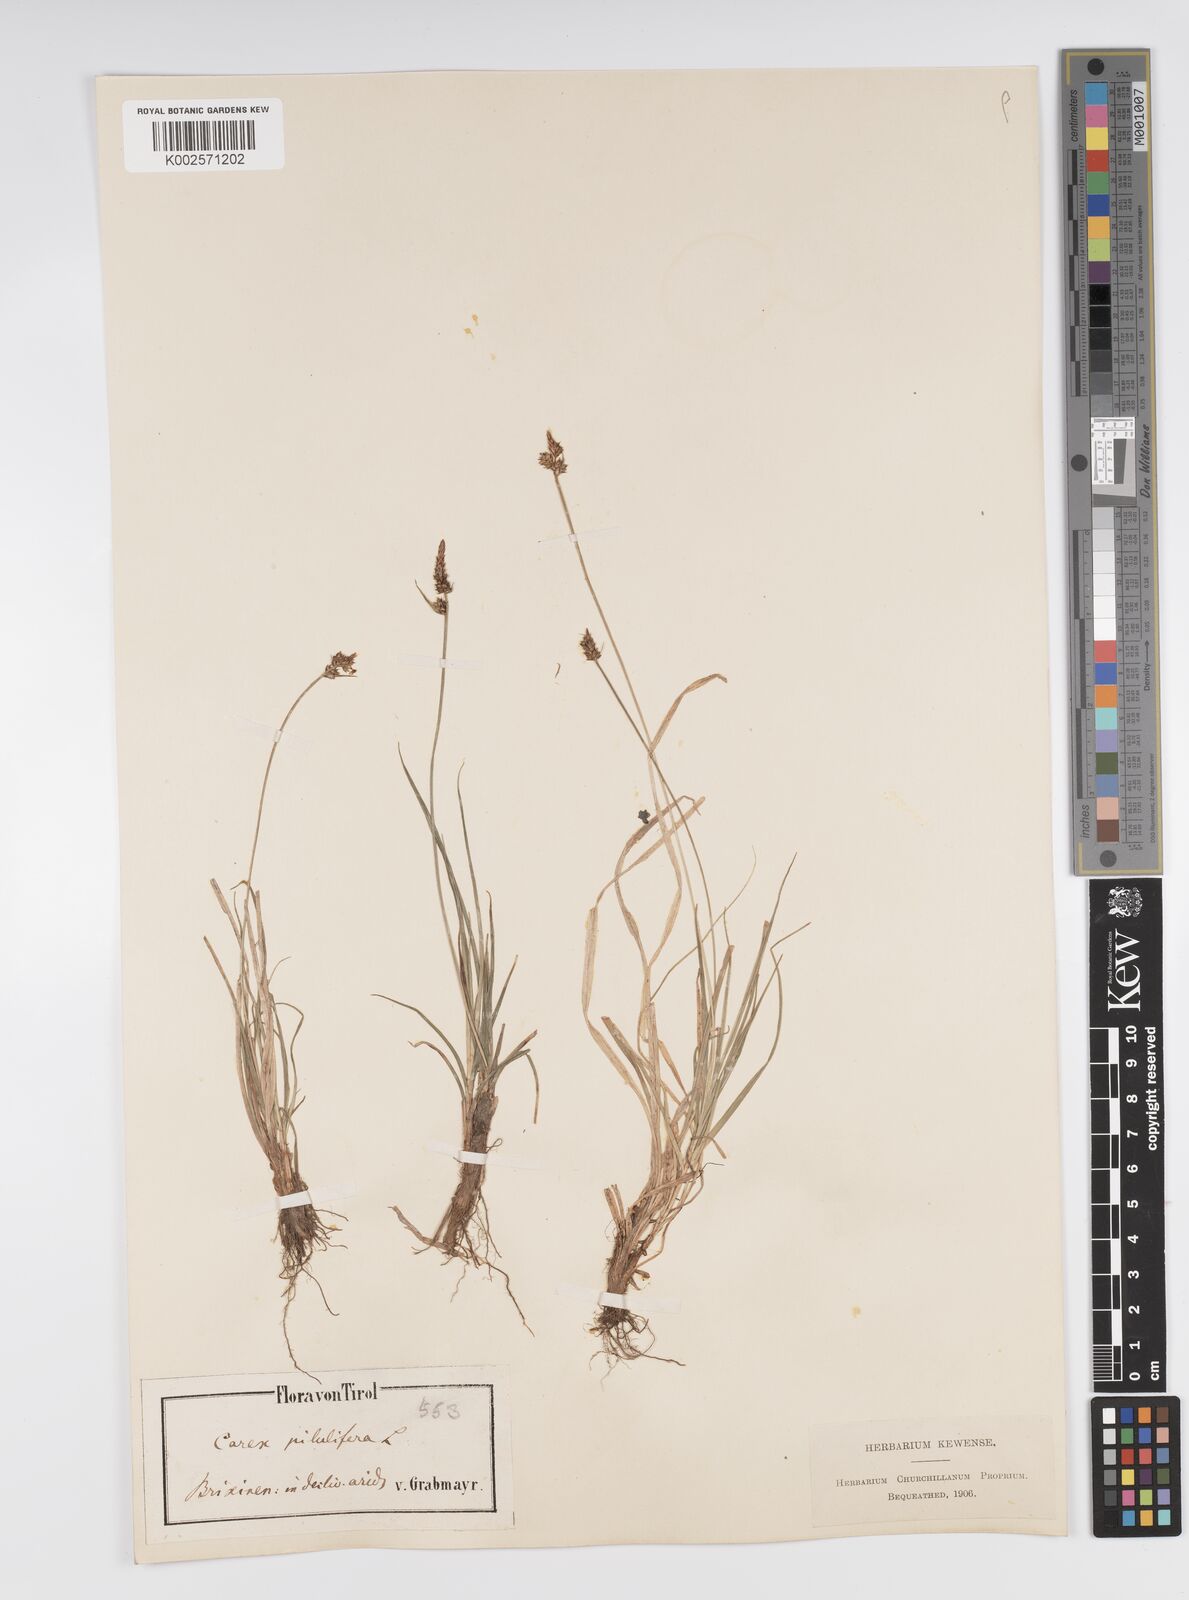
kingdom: Plantae
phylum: Tracheophyta
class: Liliopsida
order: Poales
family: Cyperaceae
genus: Carex
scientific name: Carex pilulifera
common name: Pill sedge
